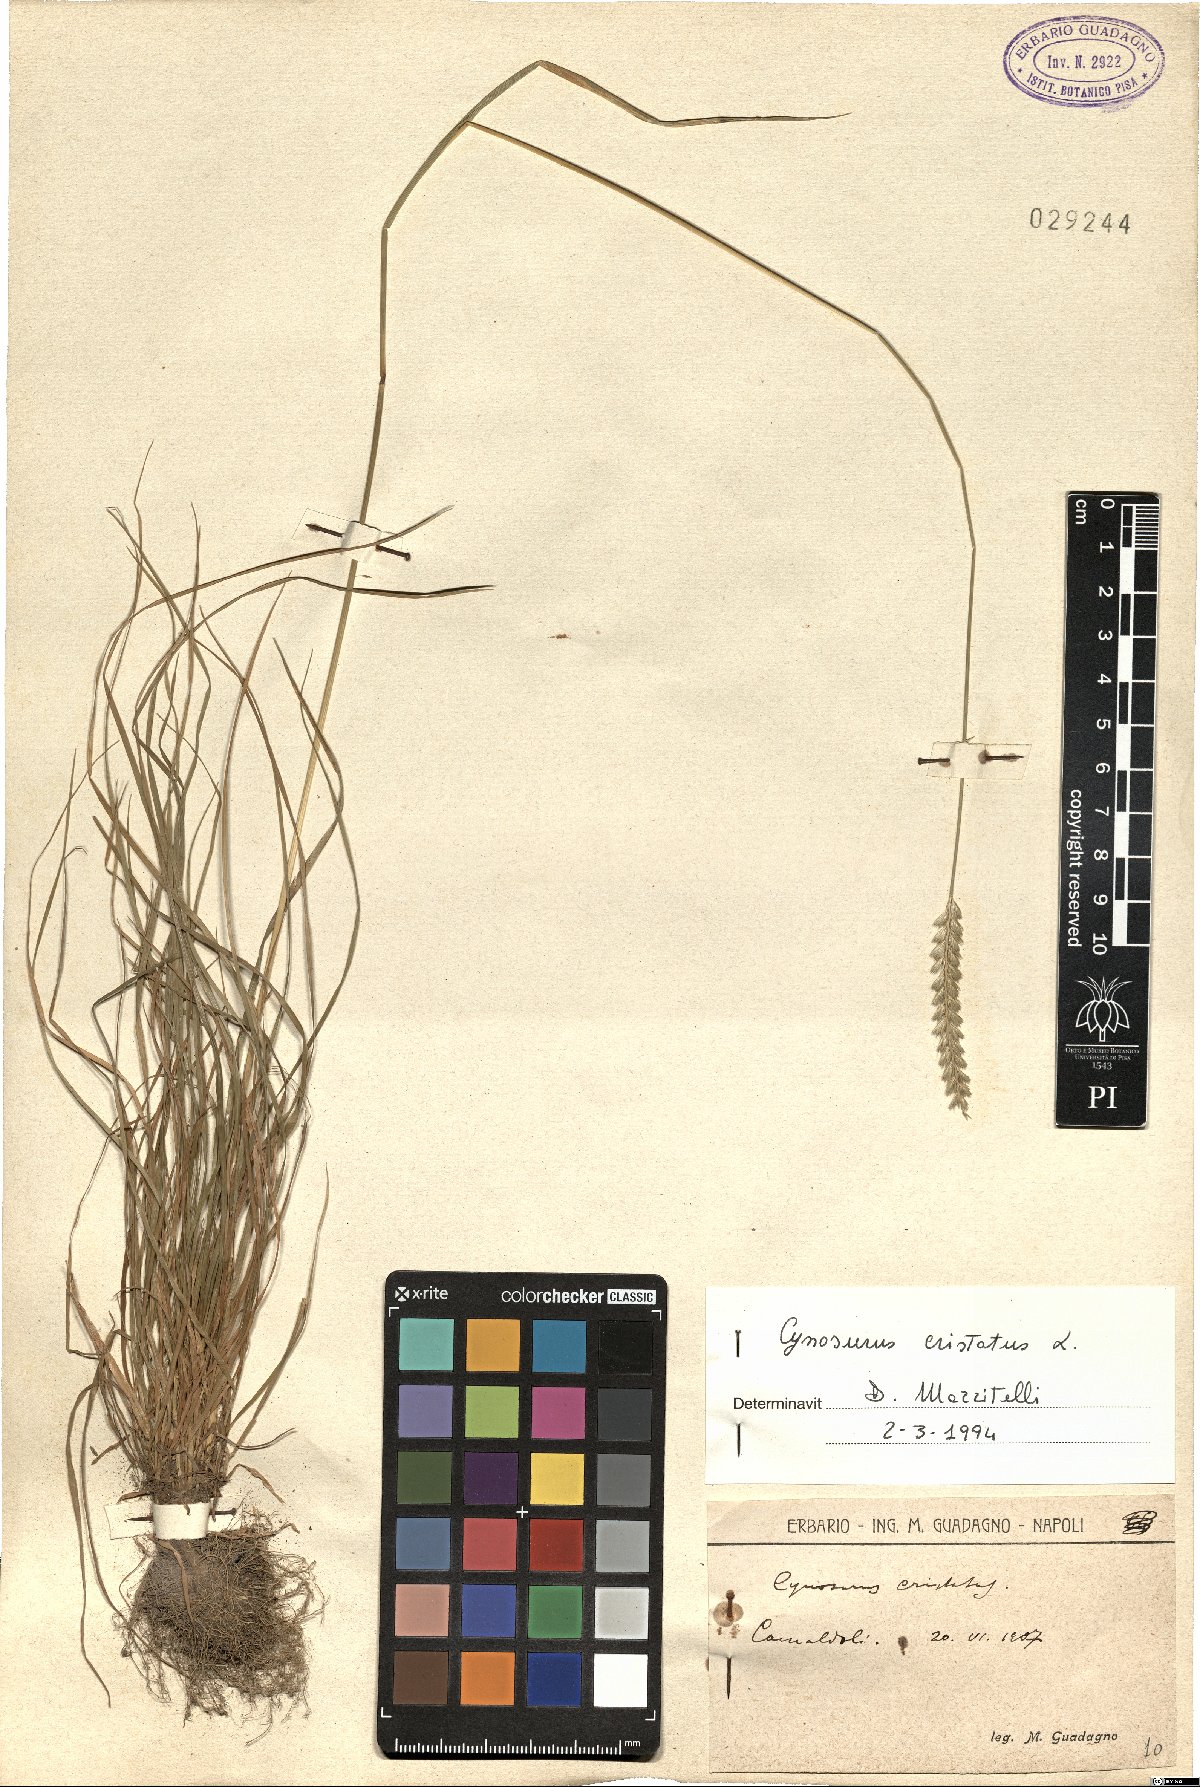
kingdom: Plantae
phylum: Tracheophyta
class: Liliopsida
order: Poales
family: Poaceae
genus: Cynosurus
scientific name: Cynosurus cristatus
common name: Crested dog's-tail
